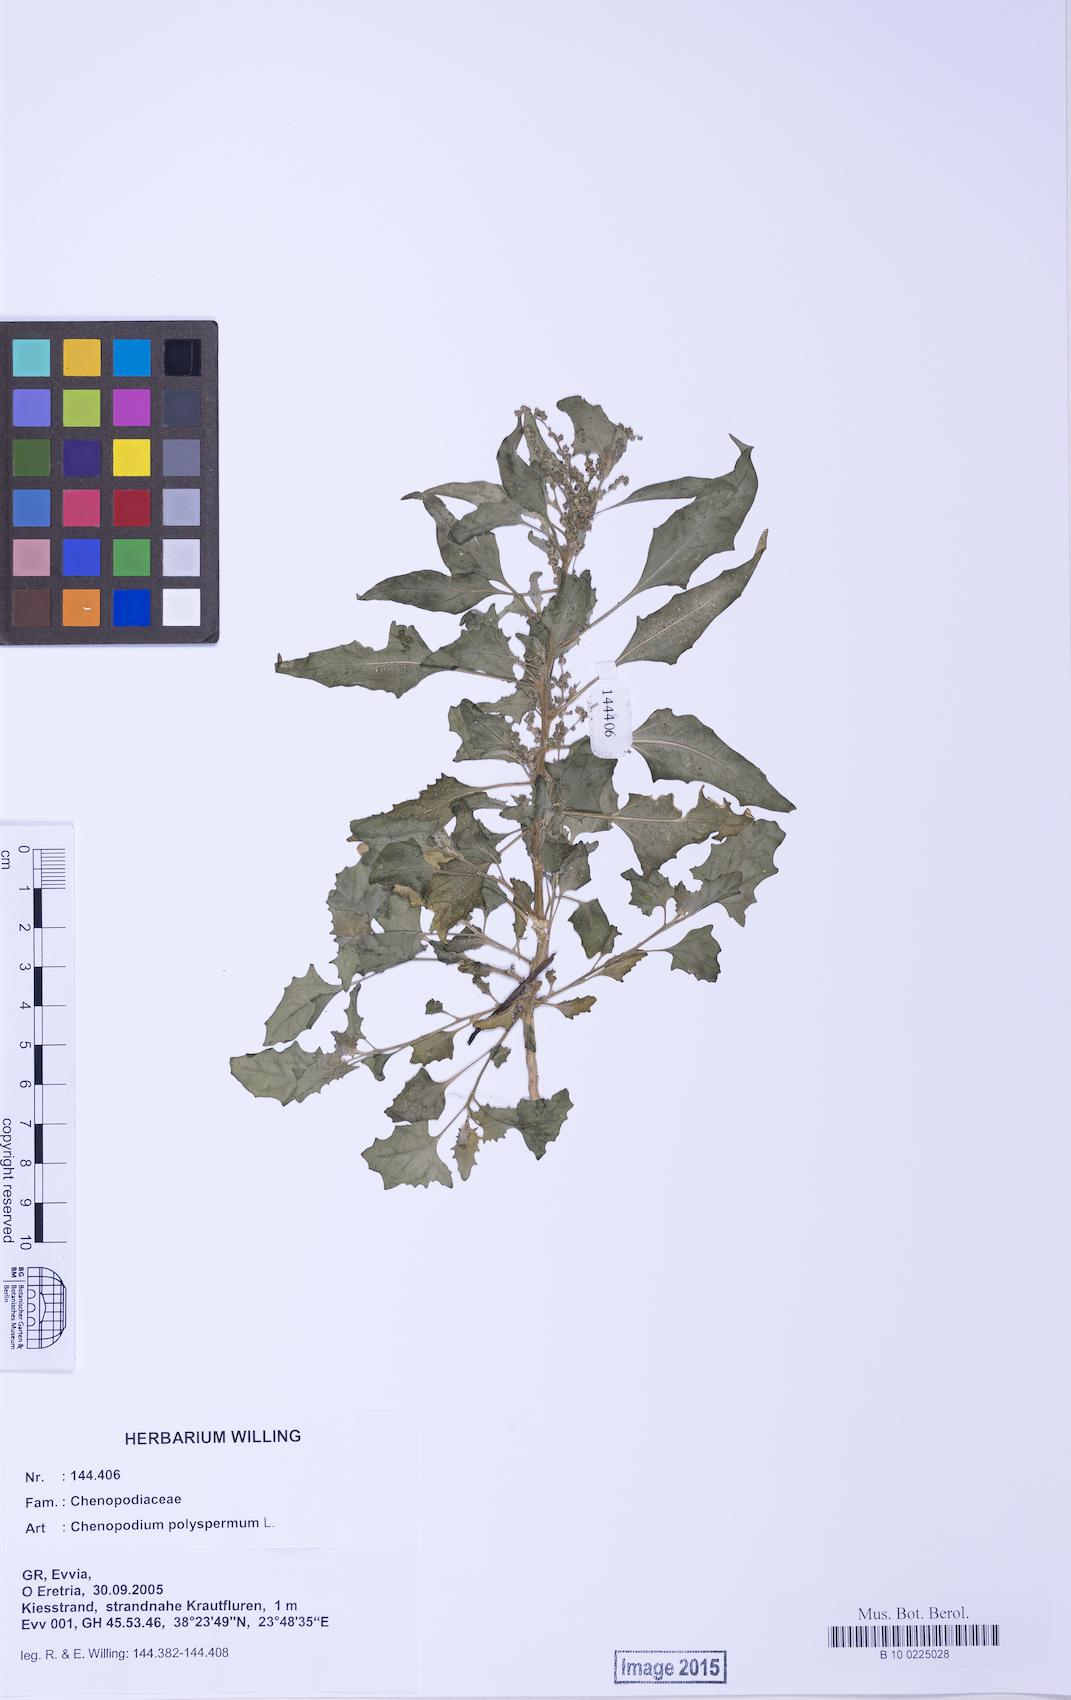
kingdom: Plantae
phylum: Tracheophyta
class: Magnoliopsida
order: Caryophyllales
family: Amaranthaceae
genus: Chenopodiastrum
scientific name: Chenopodiastrum murale
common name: Sowbane
